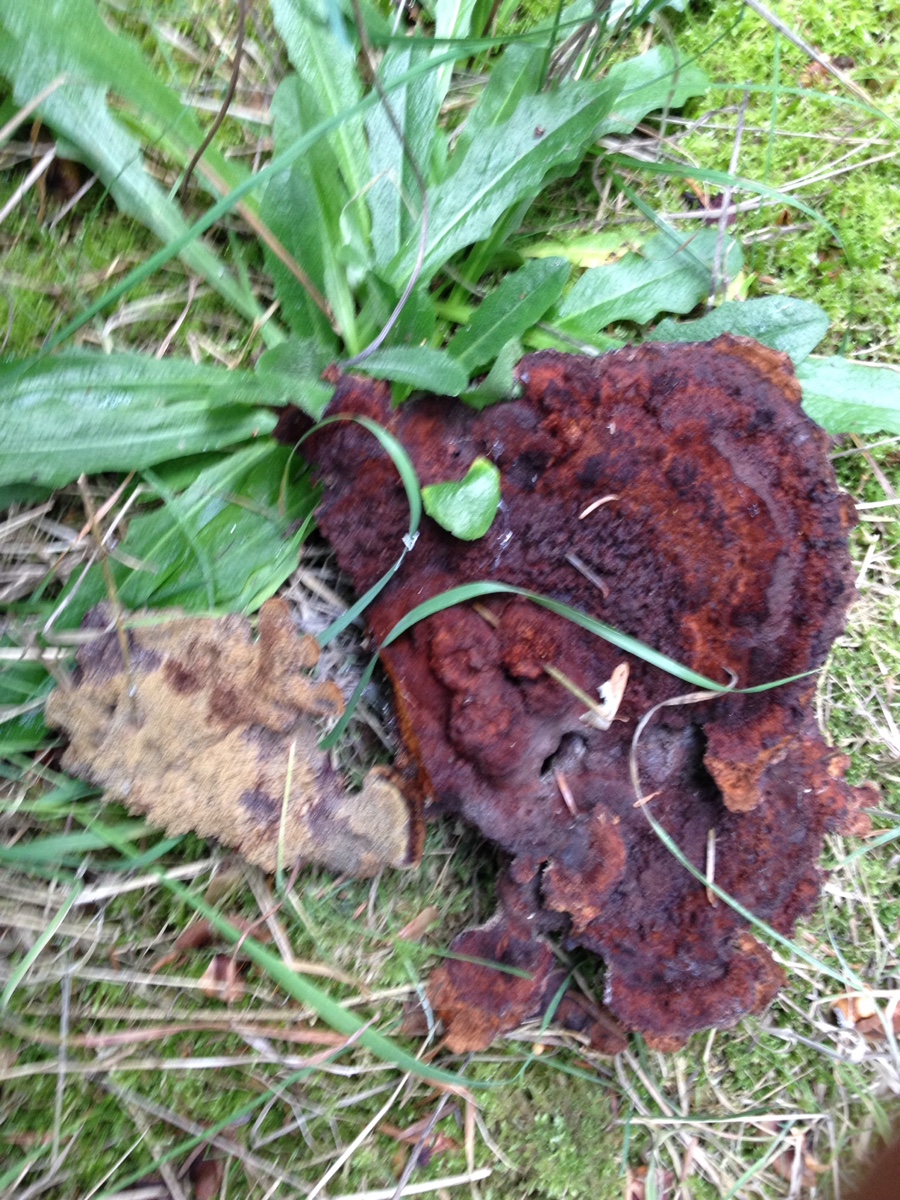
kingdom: Fungi
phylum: Basidiomycota
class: Agaricomycetes
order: Polyporales
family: Laetiporaceae
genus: Phaeolus
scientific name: Phaeolus schweinitzii
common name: brunporesvamp
